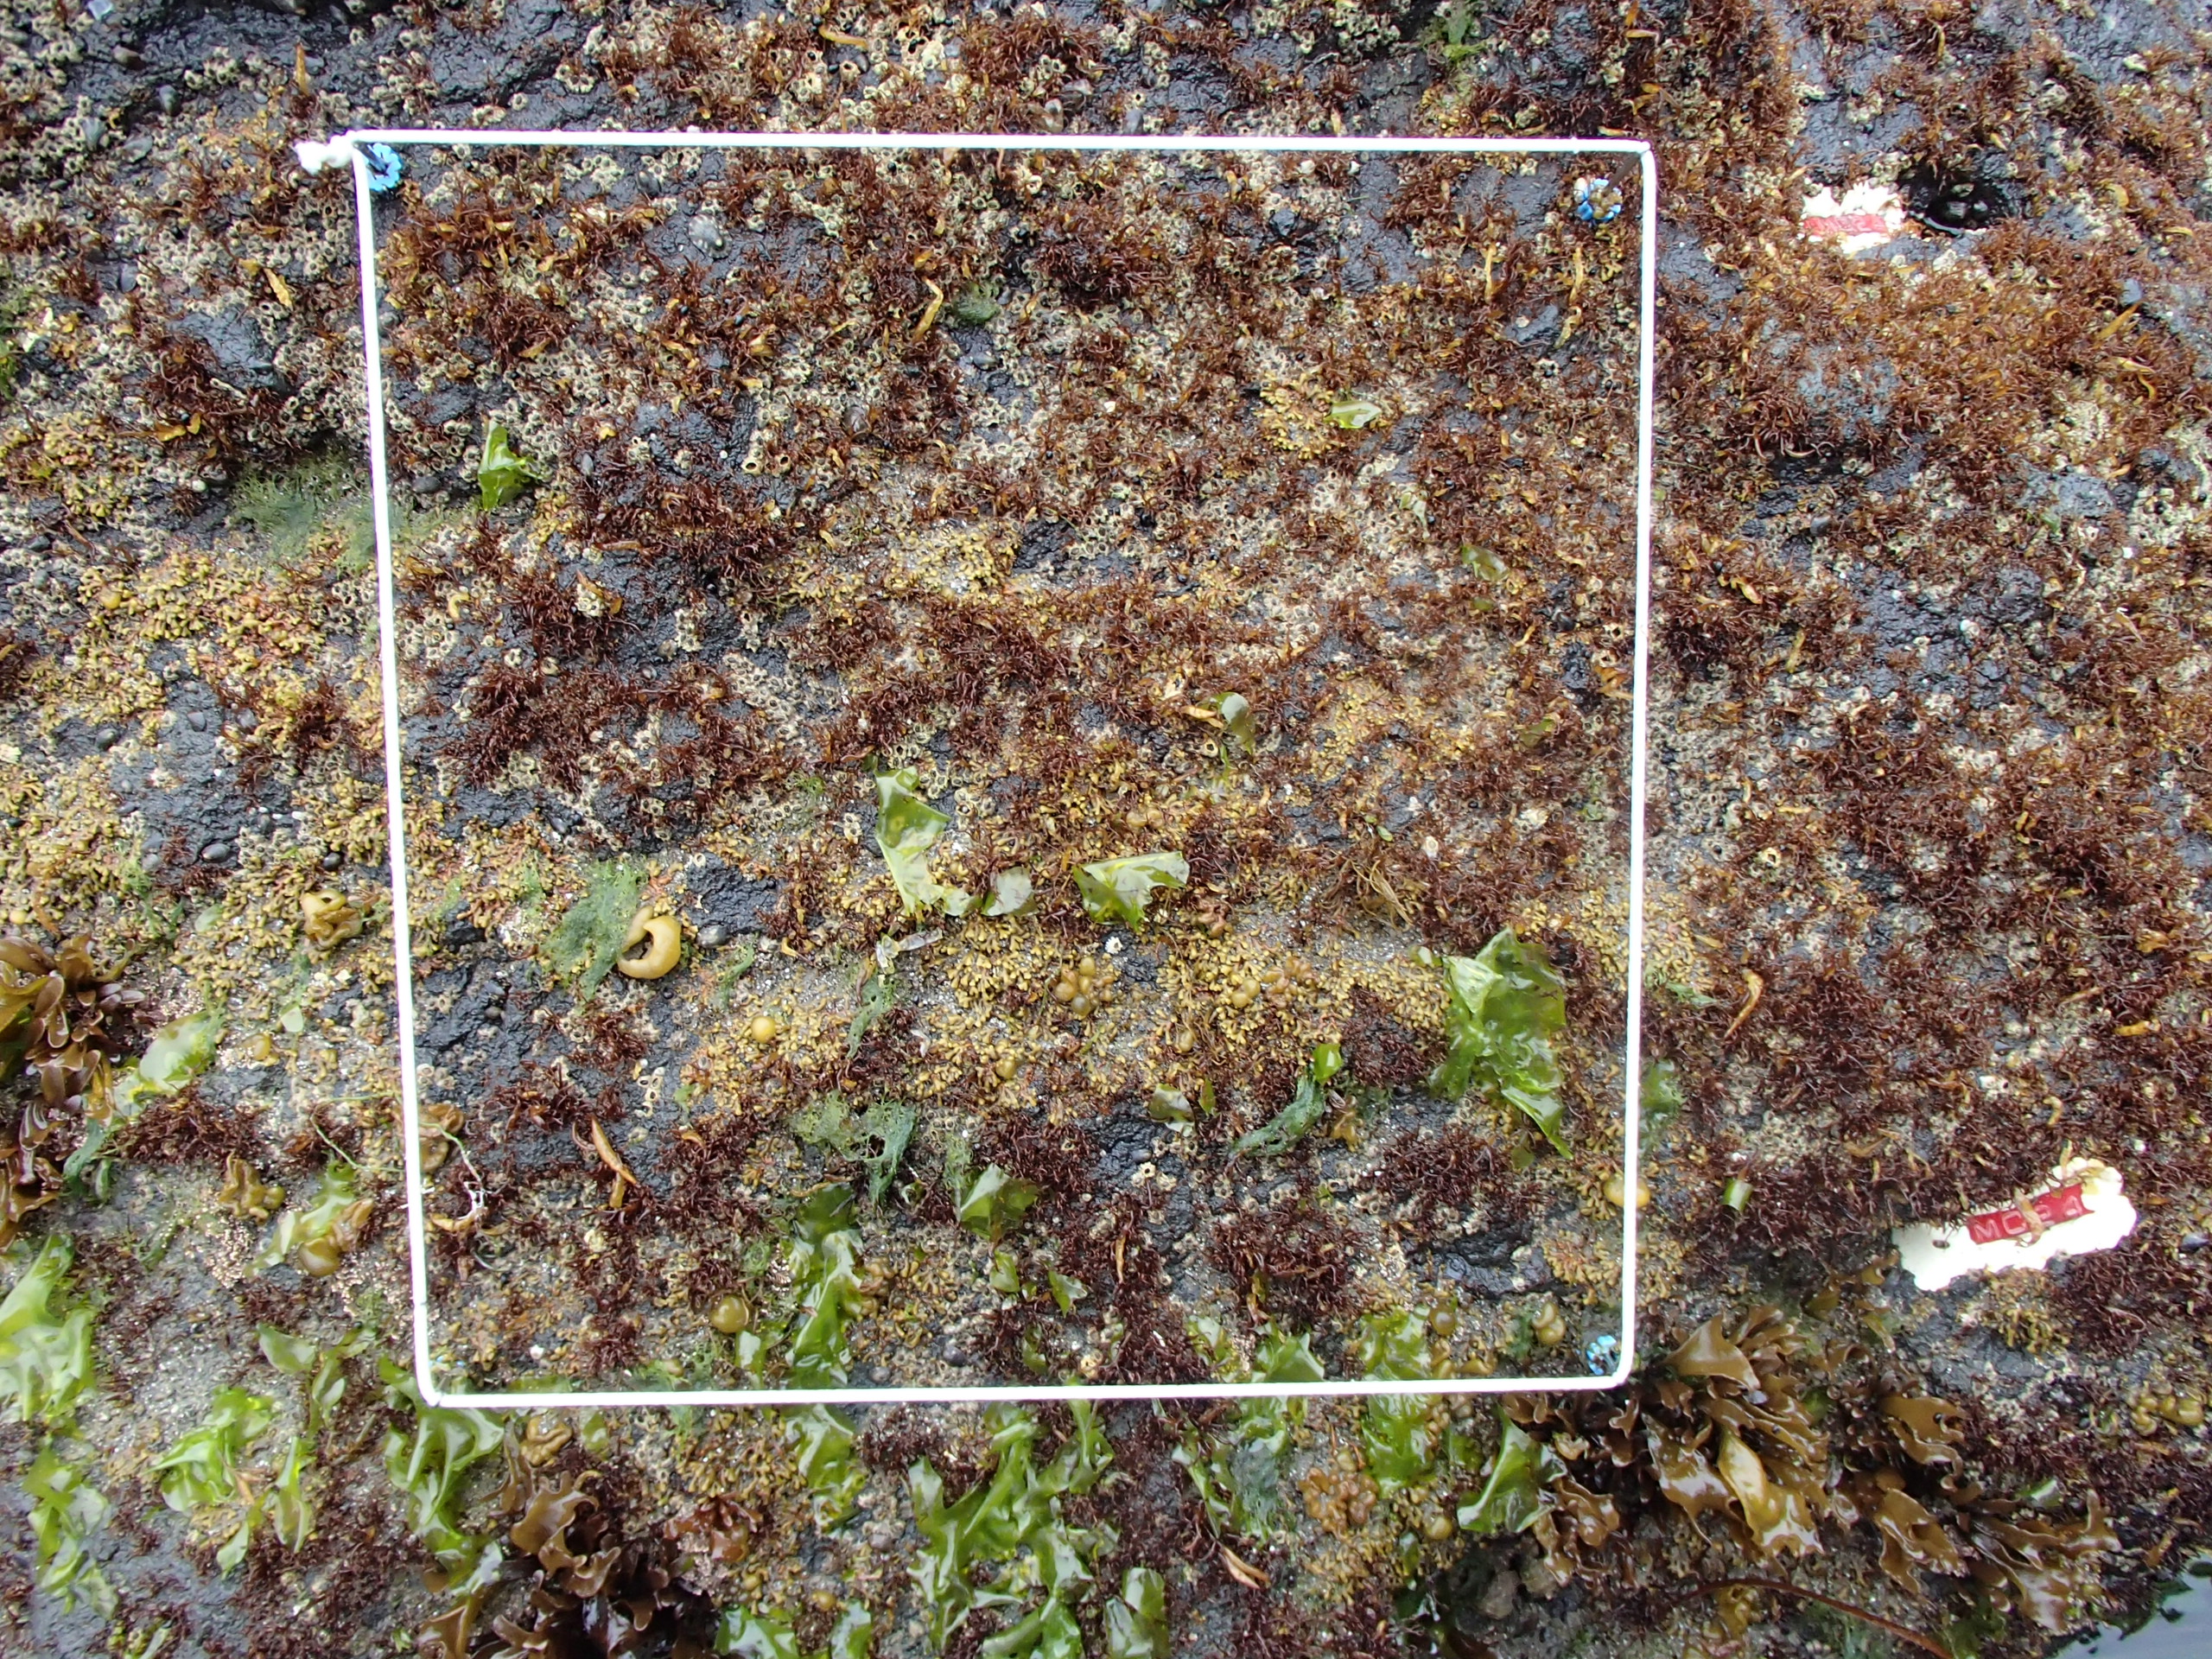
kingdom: Animalia
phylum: Arthropoda
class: Maxillopoda
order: Sessilia
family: Chthamalidae
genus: Chthamalus
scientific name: Chthamalus dalli
